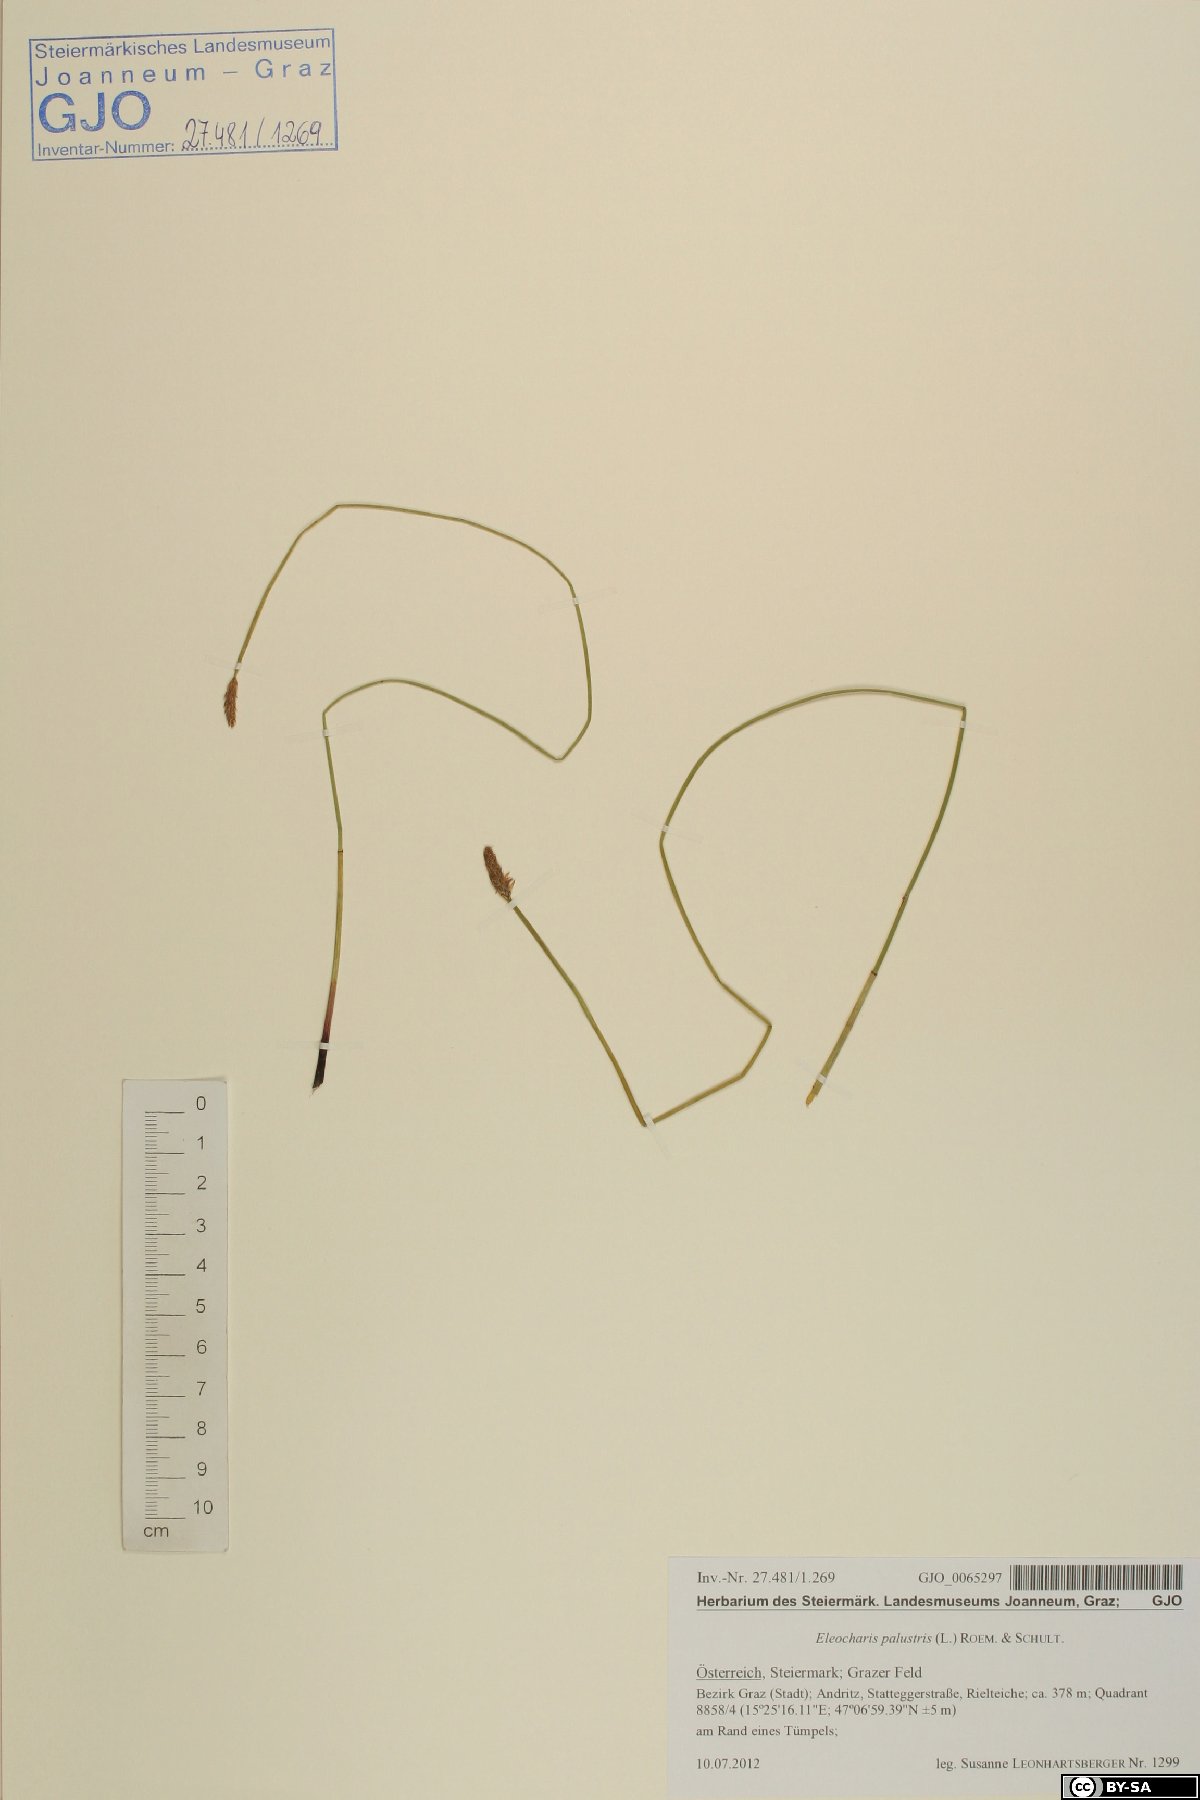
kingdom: Plantae
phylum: Tracheophyta
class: Liliopsida
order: Poales
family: Cyperaceae
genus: Eleocharis
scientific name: Eleocharis palustris
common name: Common spike-rush
